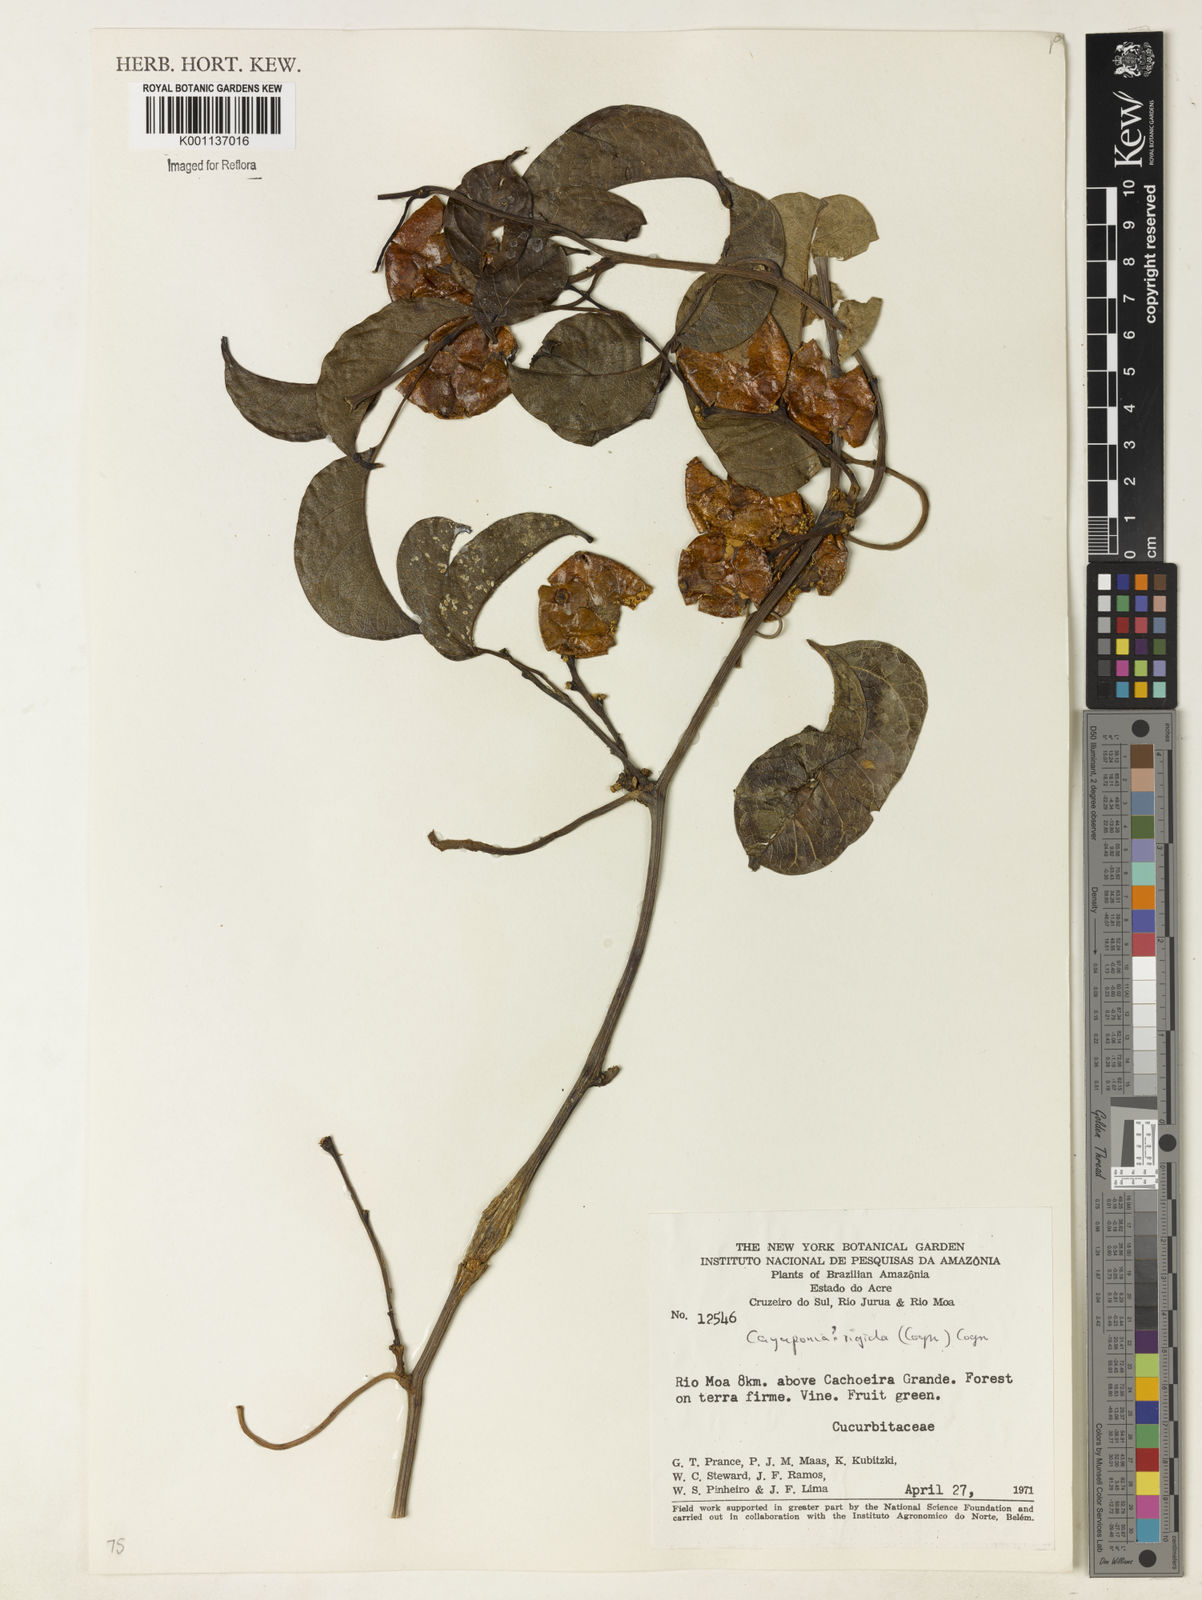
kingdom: Plantae
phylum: Tracheophyta
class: Magnoliopsida
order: Cucurbitales
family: Cucurbitaceae
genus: Cayaponia
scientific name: Cayaponia rigida
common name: Boskomkommer
